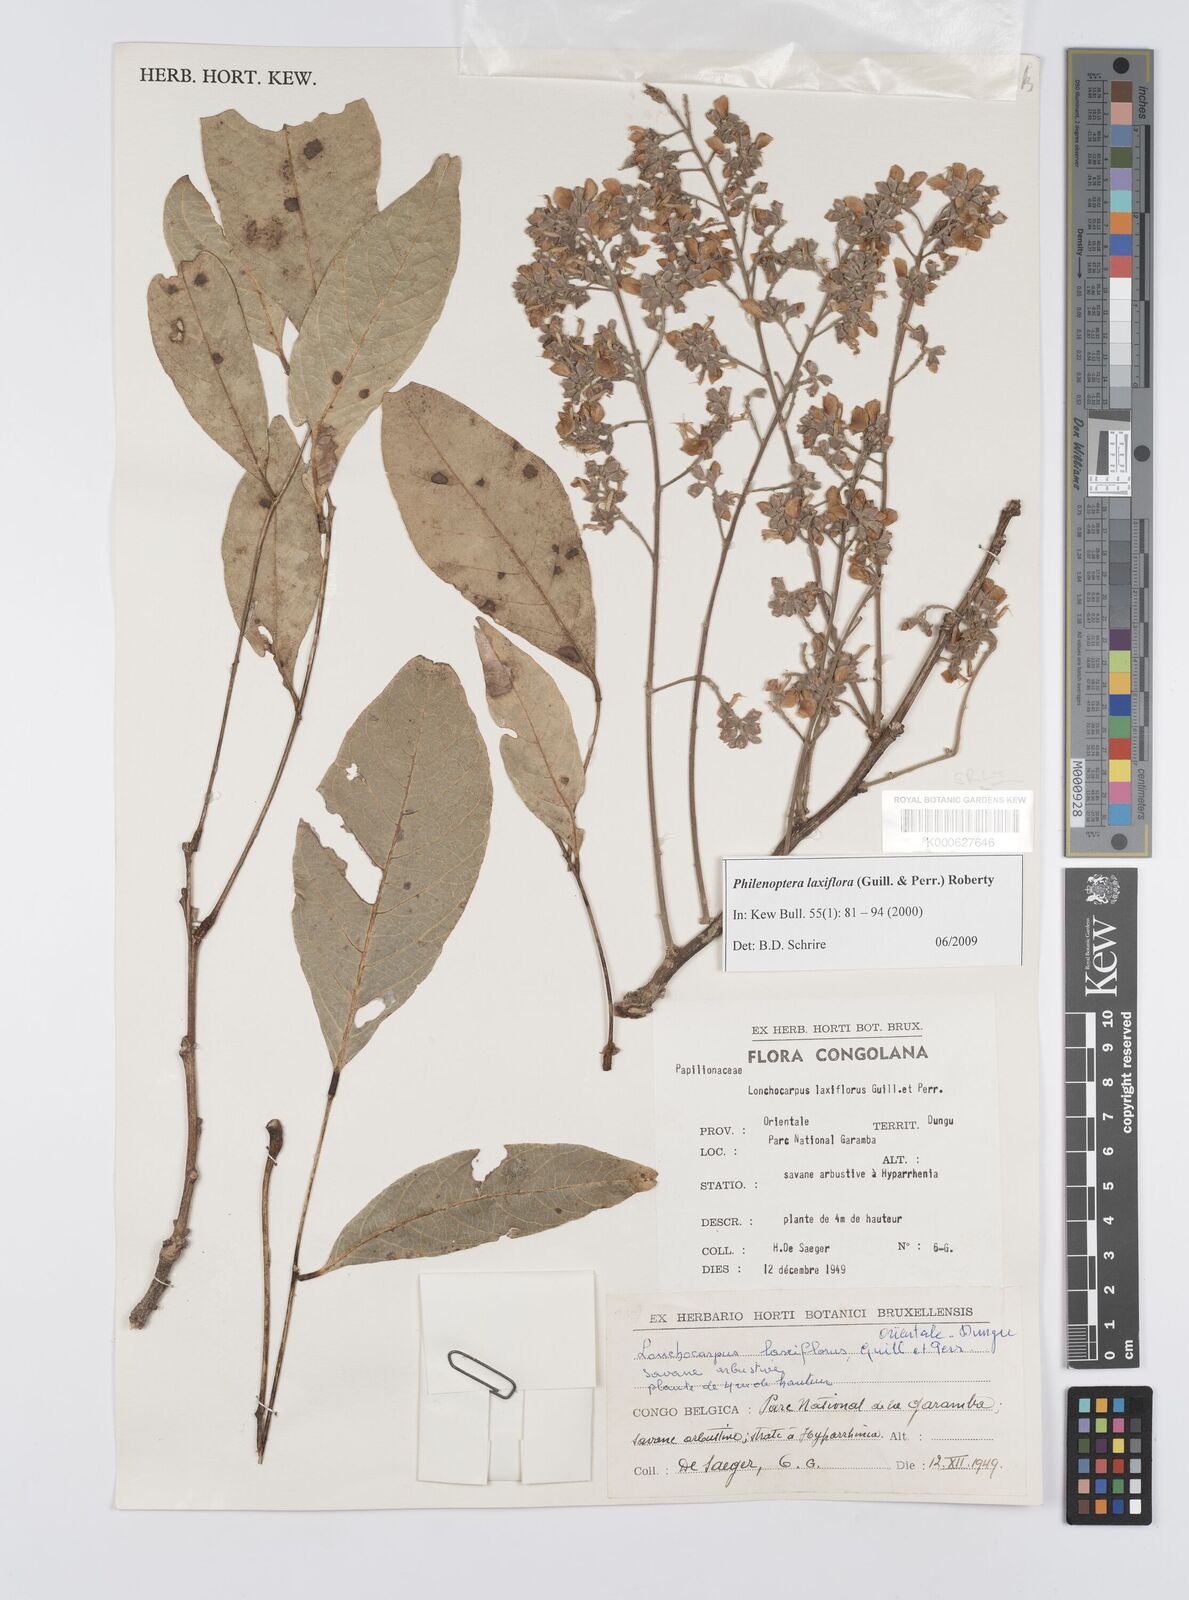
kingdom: Plantae
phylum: Tracheophyta
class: Magnoliopsida
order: Fabales
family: Fabaceae
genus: Philenoptera
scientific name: Philenoptera laxiflora
